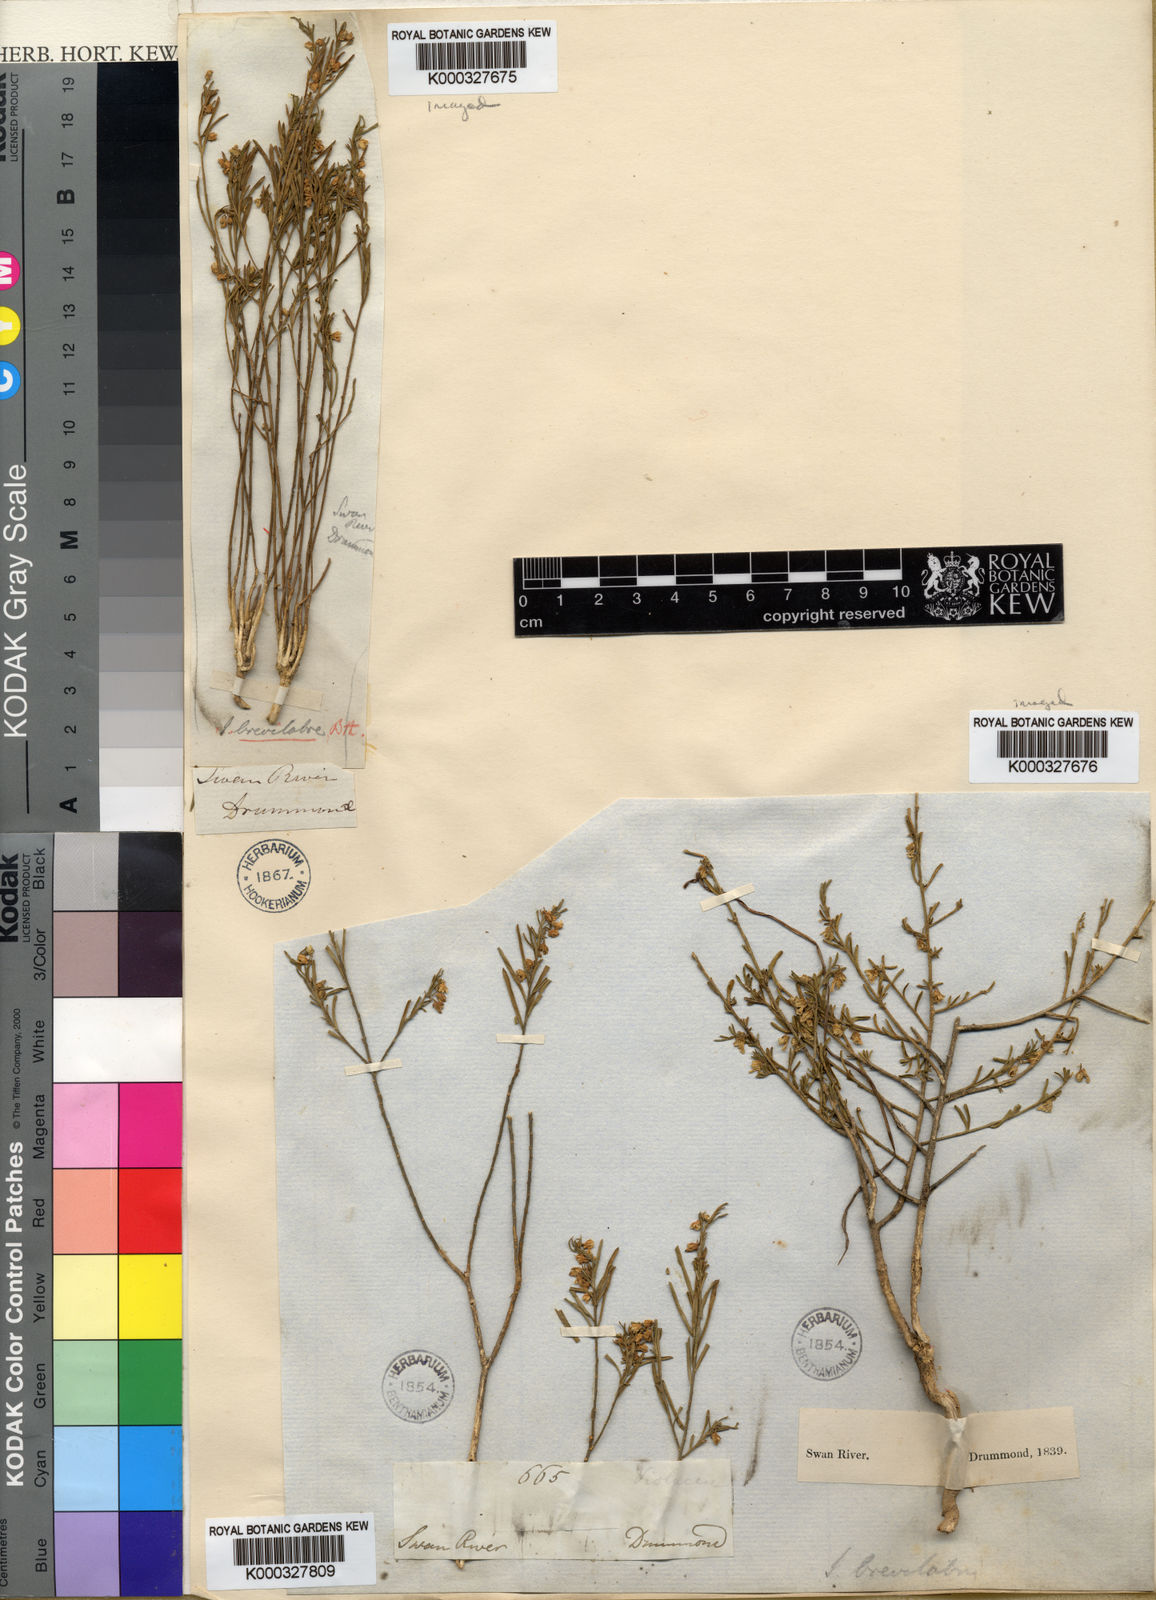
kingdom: Plantae
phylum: Tracheophyta
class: Magnoliopsida
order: Malpighiales
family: Violaceae
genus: Pigea
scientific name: Pigea floribunda
